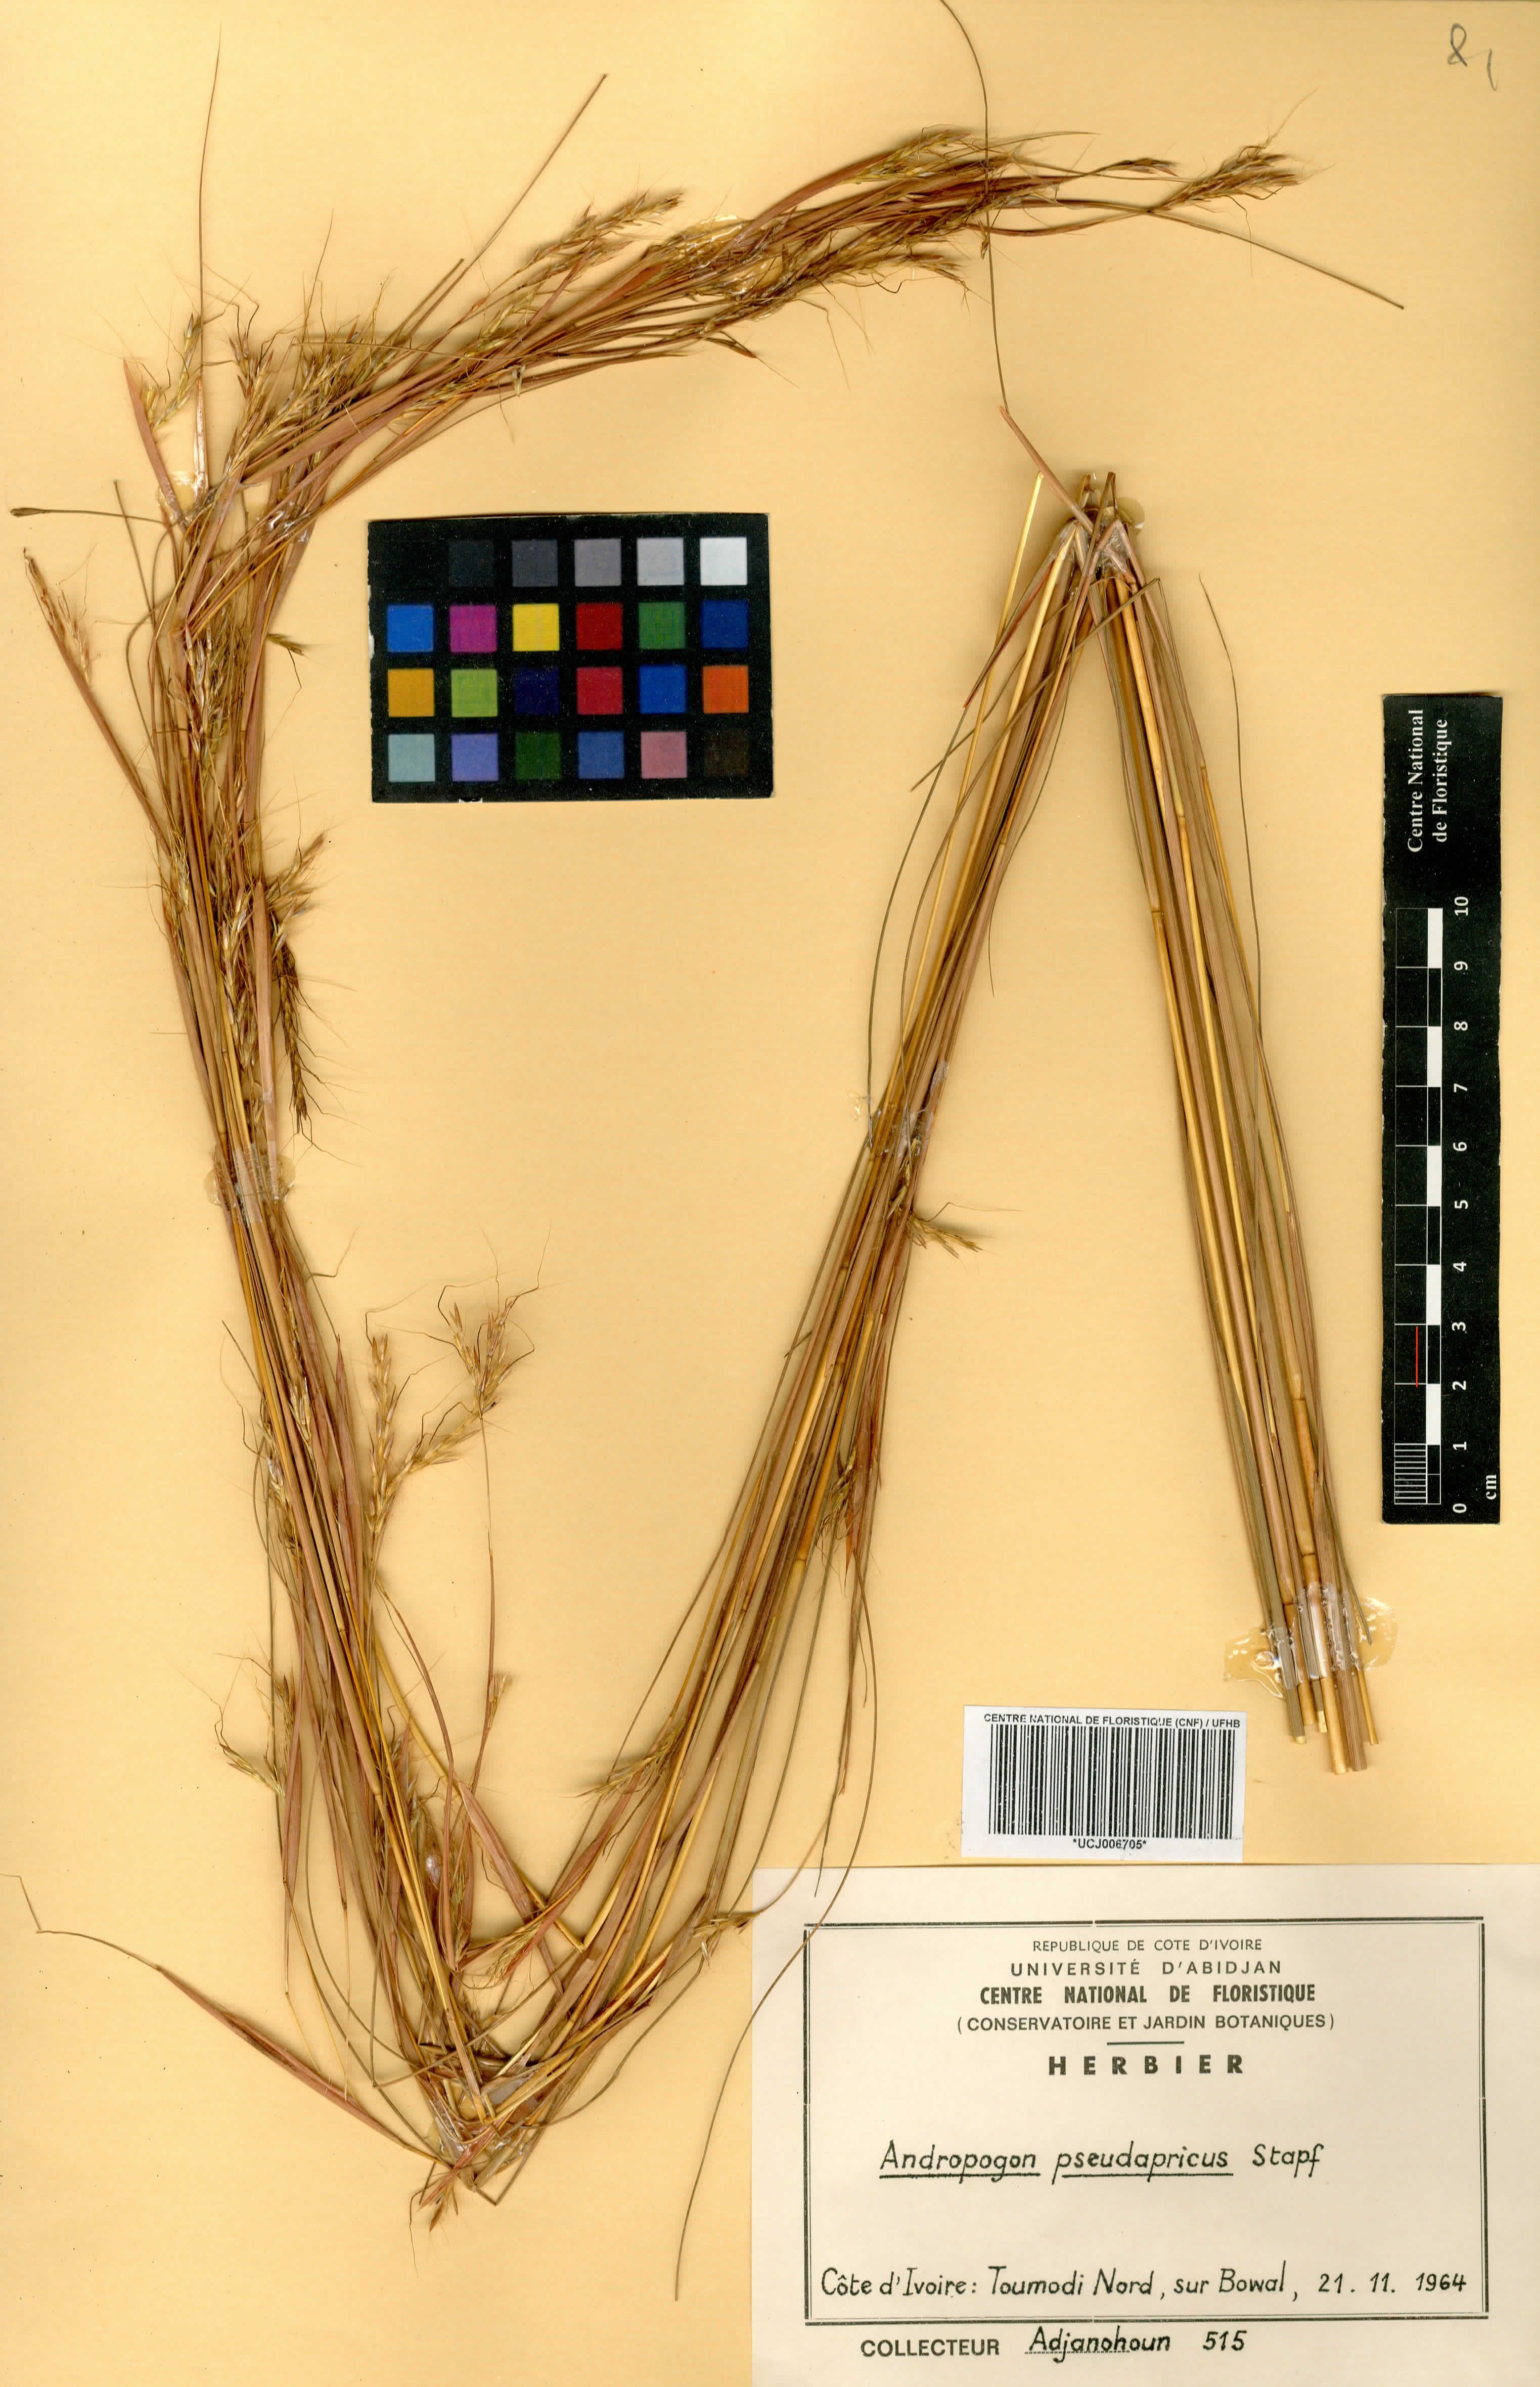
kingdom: Plantae
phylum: Tracheophyta
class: Liliopsida
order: Poales
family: Poaceae
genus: Andropogon
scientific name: Andropogon pseudapricus
